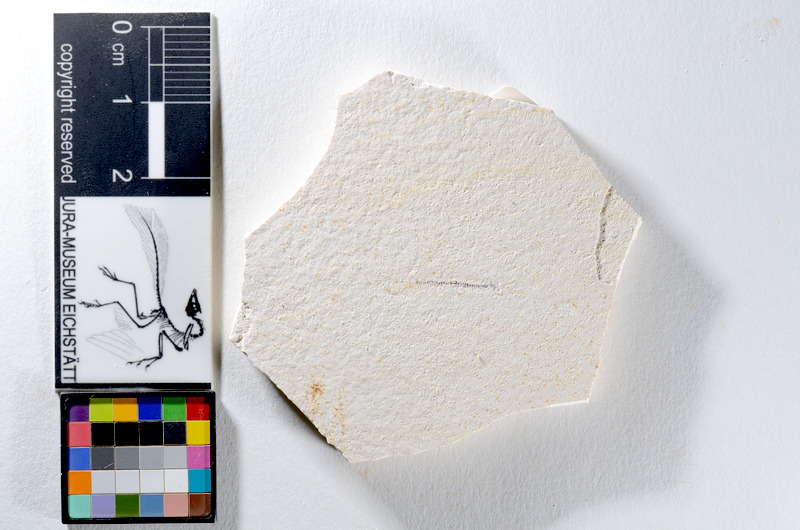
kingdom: Animalia
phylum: Chordata
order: Salmoniformes
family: Orthogonikleithridae
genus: Orthogonikleithrus
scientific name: Orthogonikleithrus hoelli
